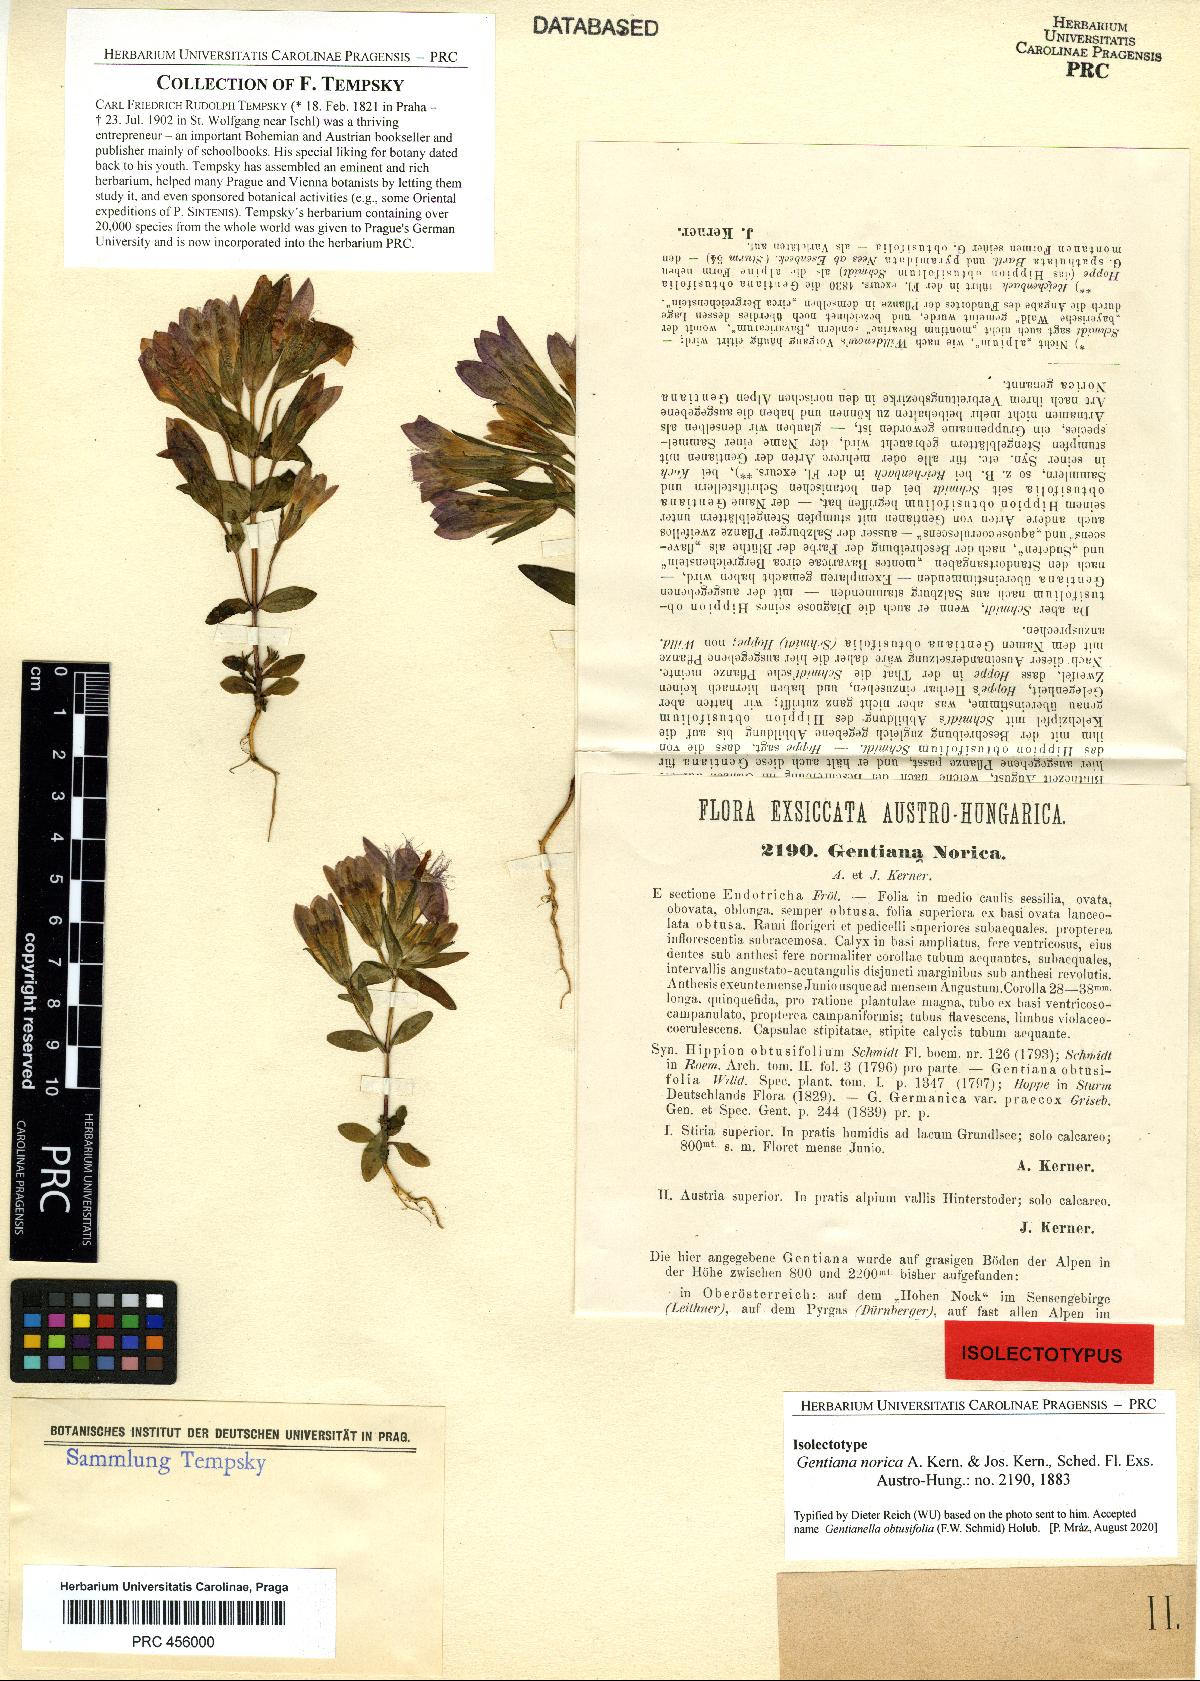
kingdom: Plantae
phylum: Tracheophyta
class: Magnoliopsida
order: Gentianales
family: Gentianaceae
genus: Gentianella
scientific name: Gentianella obtusifolia
